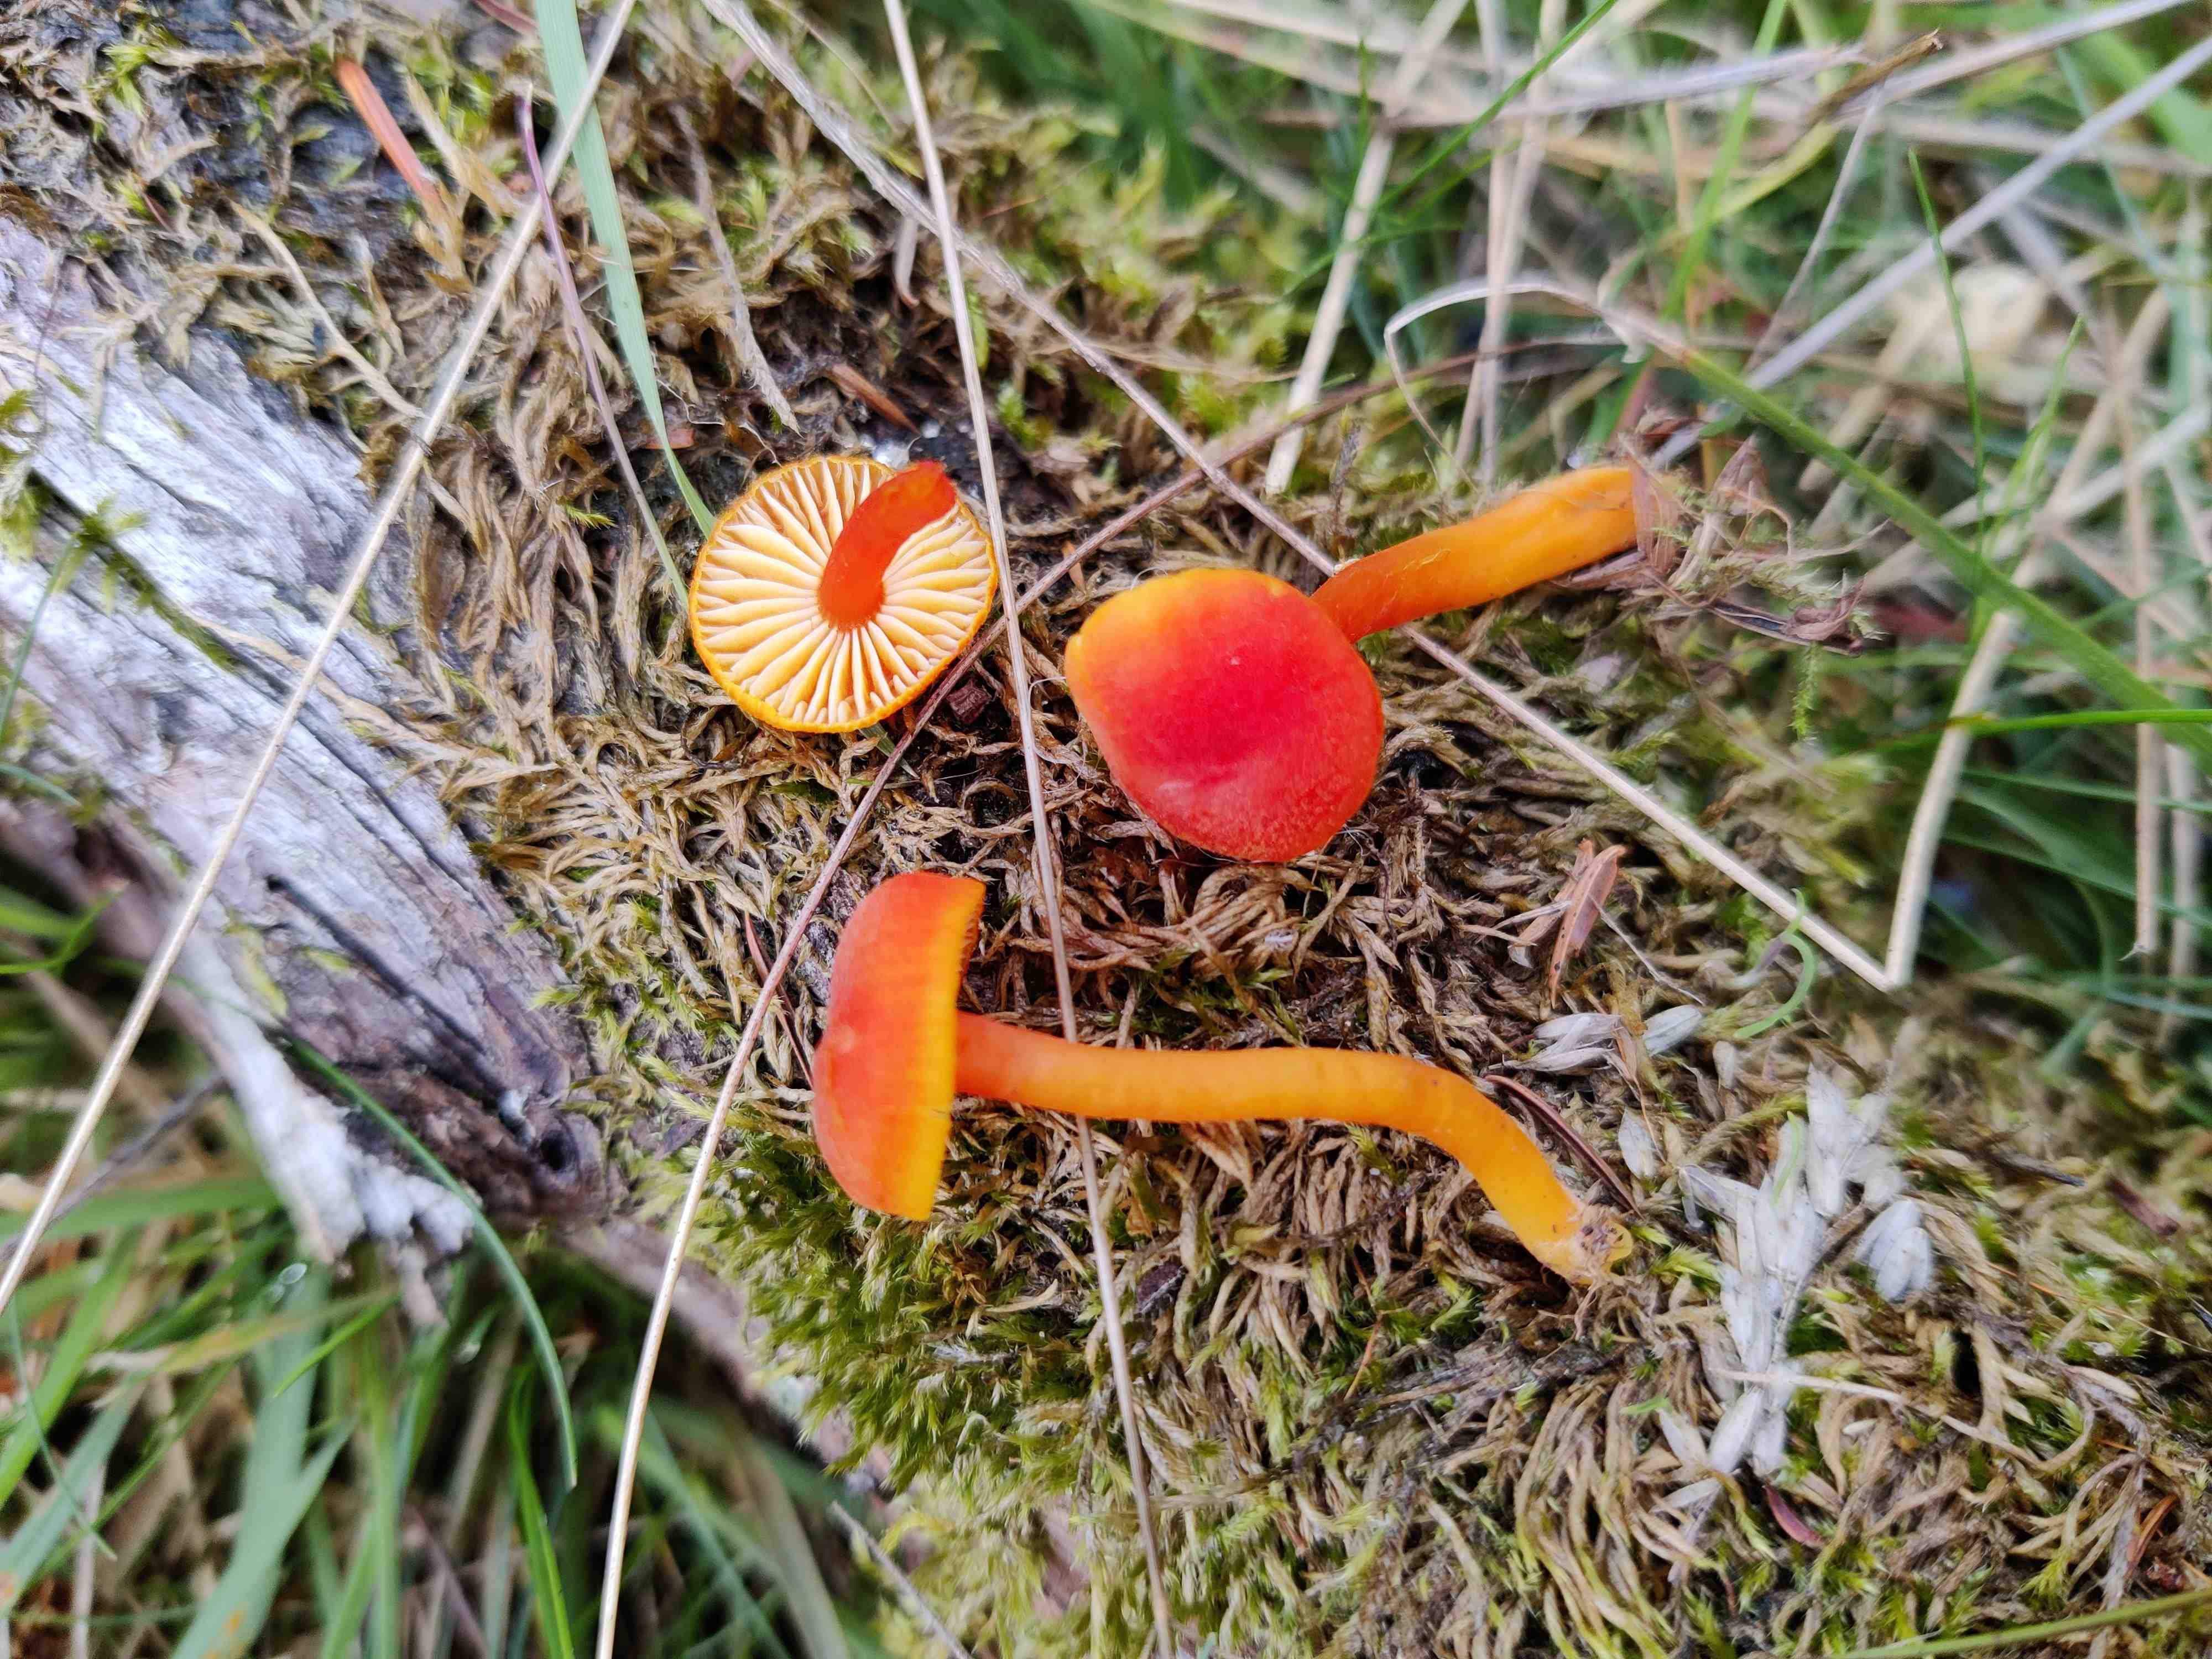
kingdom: Fungi
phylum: Basidiomycota
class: Agaricomycetes
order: Agaricales
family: Hygrophoraceae
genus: Hygrocybe
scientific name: Hygrocybe miniata
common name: mønje-vokshat
